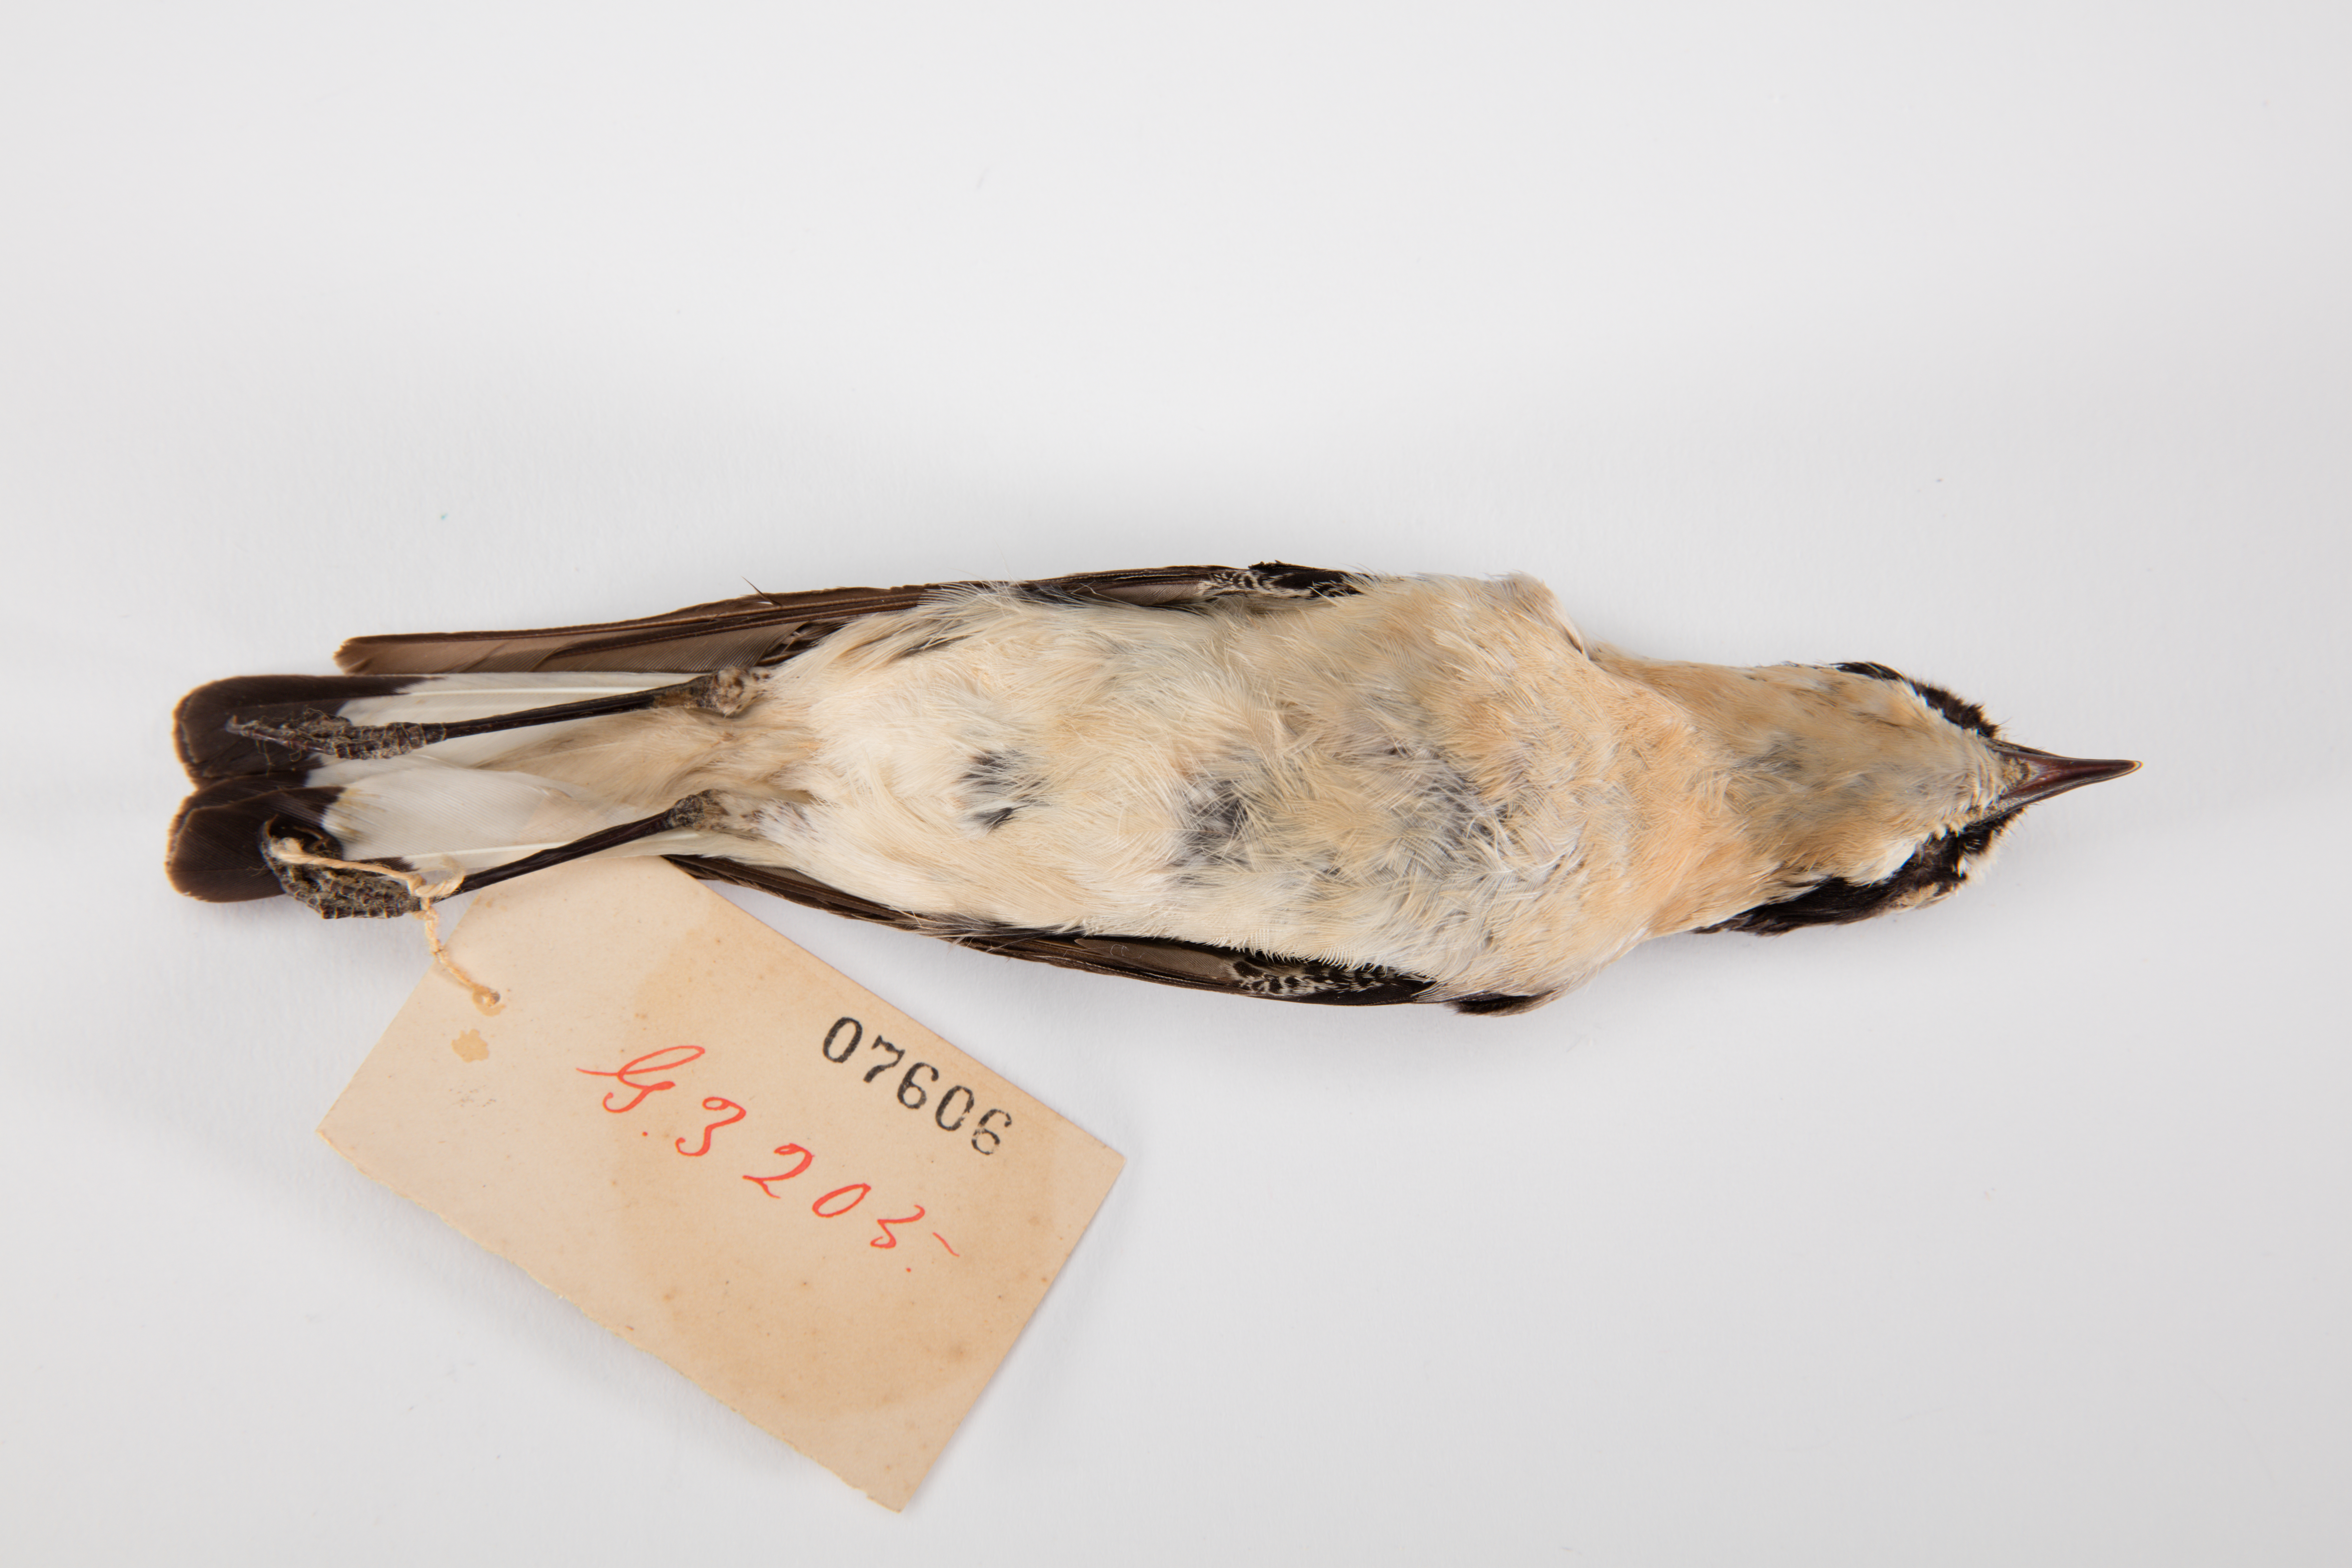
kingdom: Animalia
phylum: Chordata
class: Aves
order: Passeriformes
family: Muscicapidae
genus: Oenanthe
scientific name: Oenanthe oenanthe
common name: Northern wheatear
